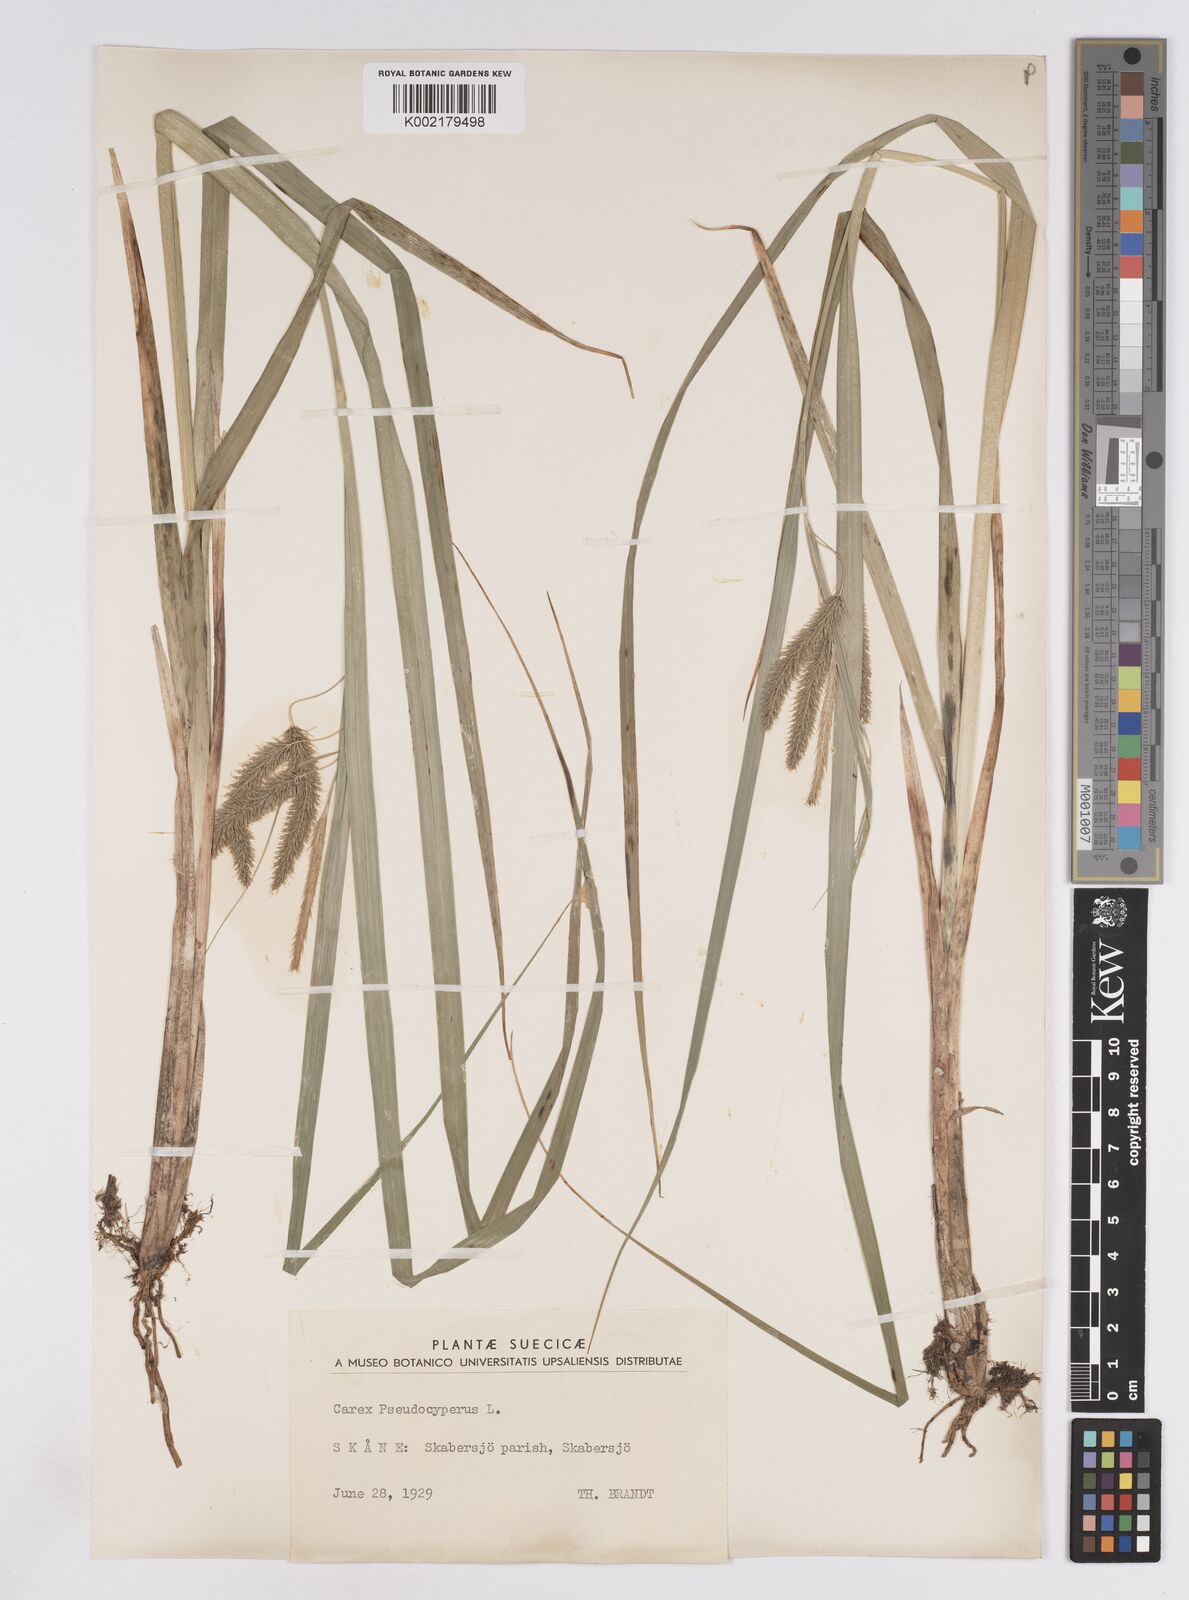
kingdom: Plantae
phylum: Tracheophyta
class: Liliopsida
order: Poales
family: Cyperaceae
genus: Carex
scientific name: Carex pseudocyperus
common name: Cyperus sedge
